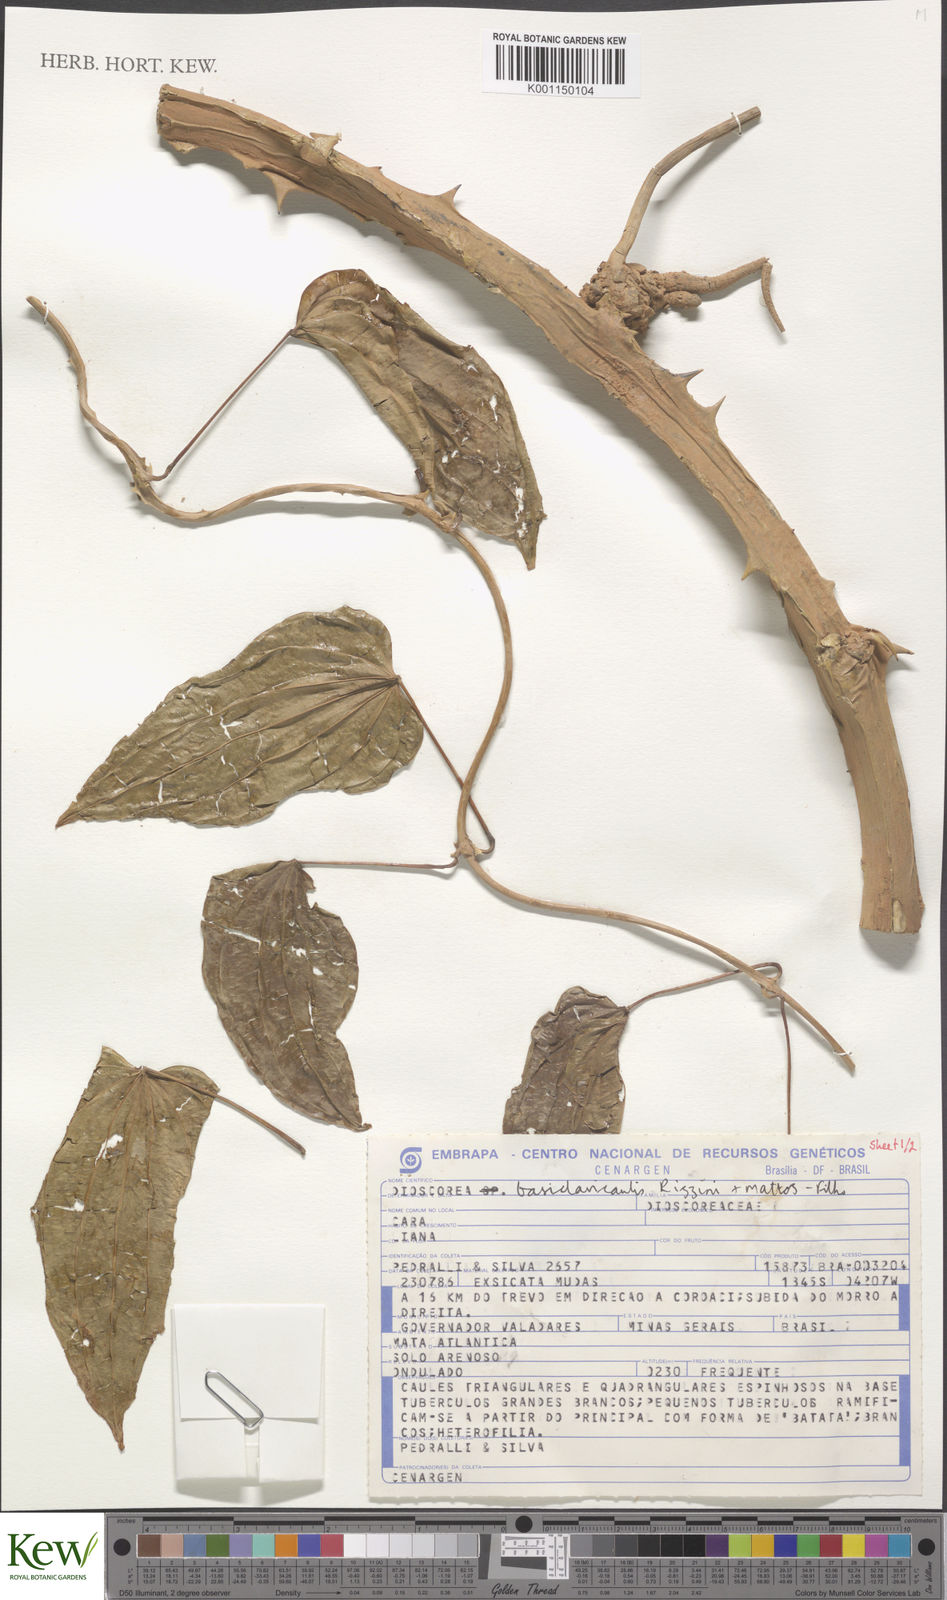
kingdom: Plantae
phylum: Tracheophyta
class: Liliopsida
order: Dioscoreales
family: Dioscoreaceae
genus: Dioscorea
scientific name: Dioscorea basiclavicaulis
